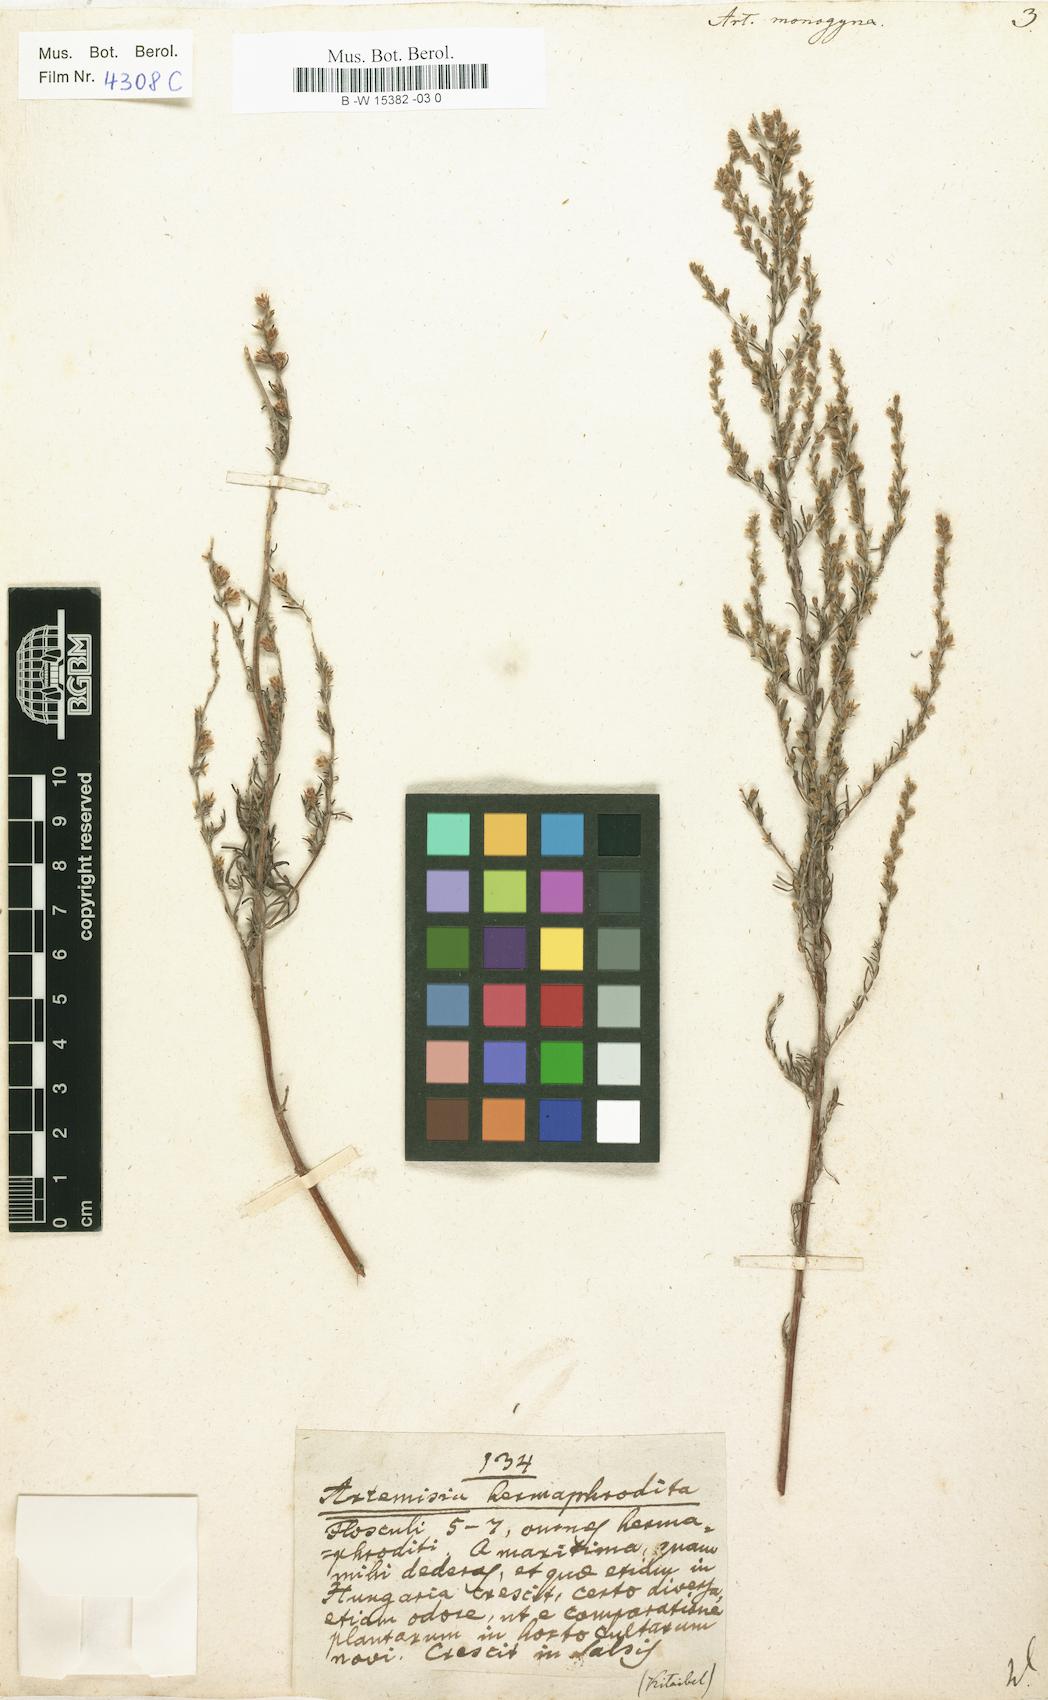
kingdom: Plantae
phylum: Tracheophyta
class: Magnoliopsida
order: Asterales
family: Asteraceae
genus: Artemisia
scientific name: Artemisia santonicum
